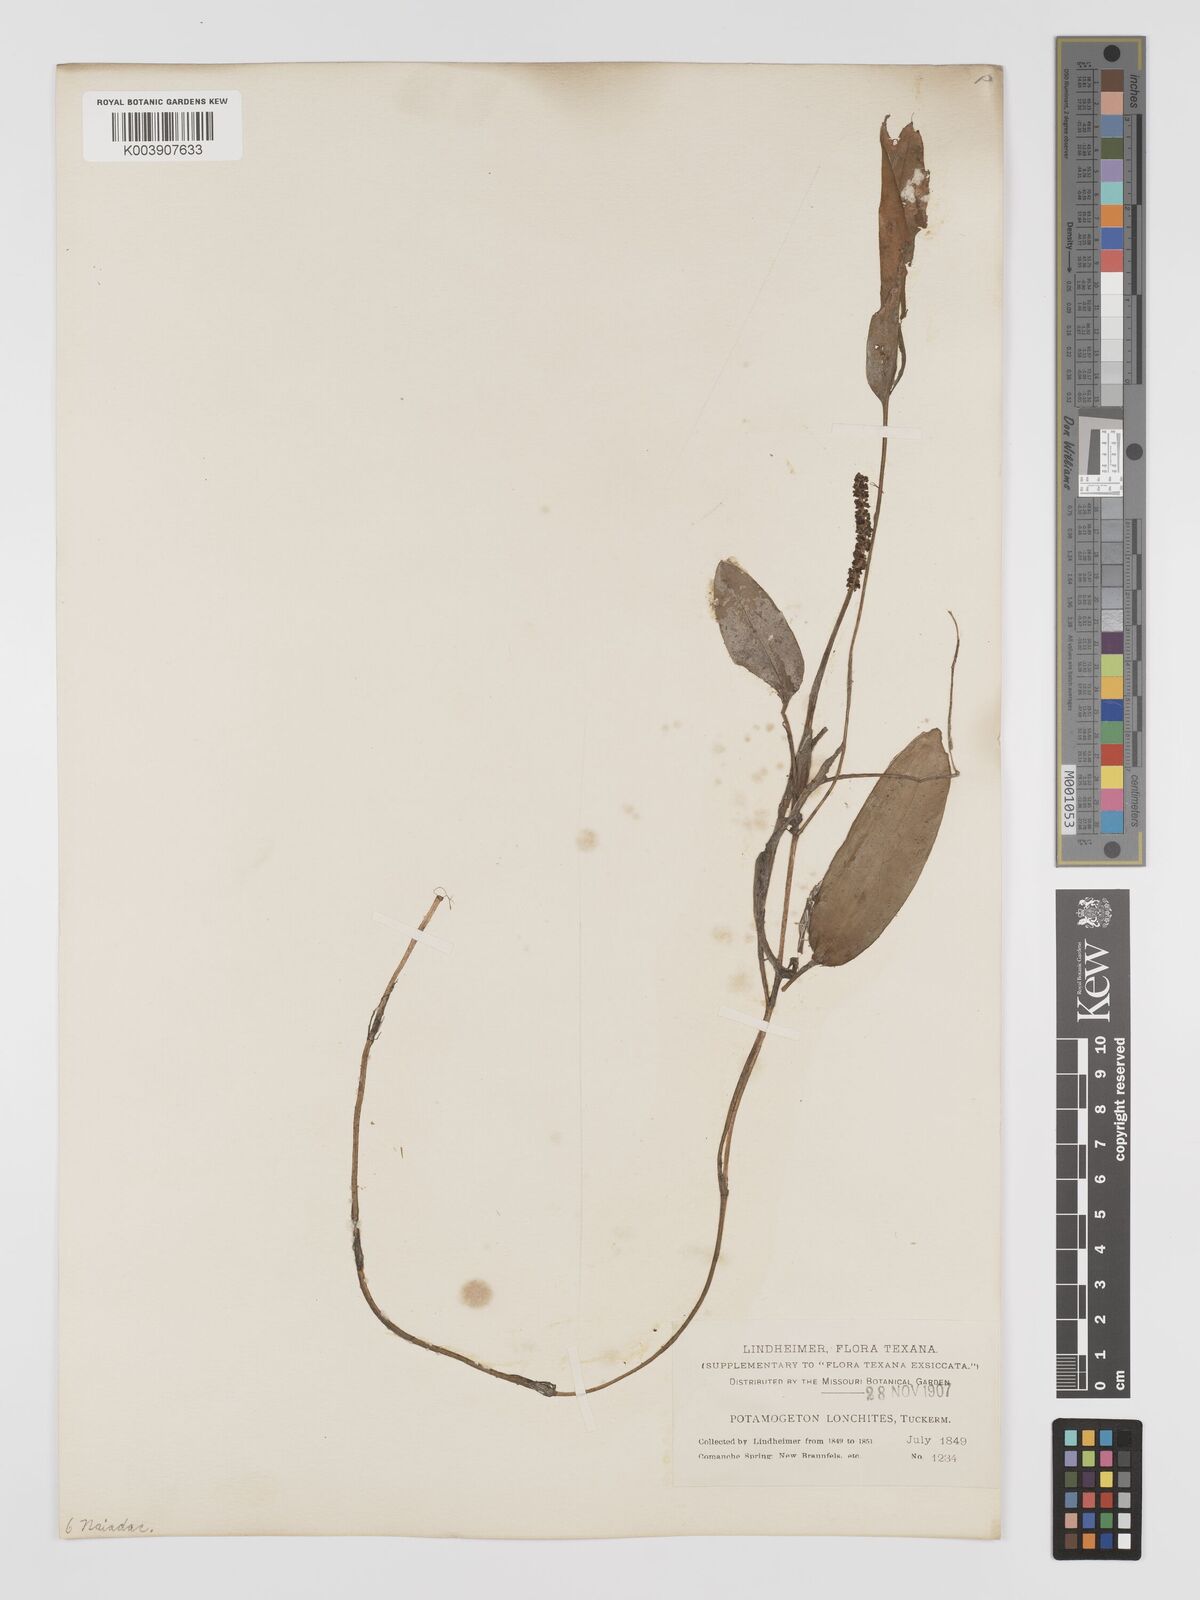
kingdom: Plantae
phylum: Tracheophyta
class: Liliopsida
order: Alismatales
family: Potamogetonaceae
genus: Potamogeton
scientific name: Potamogeton nodosus
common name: Loddon pondweed
